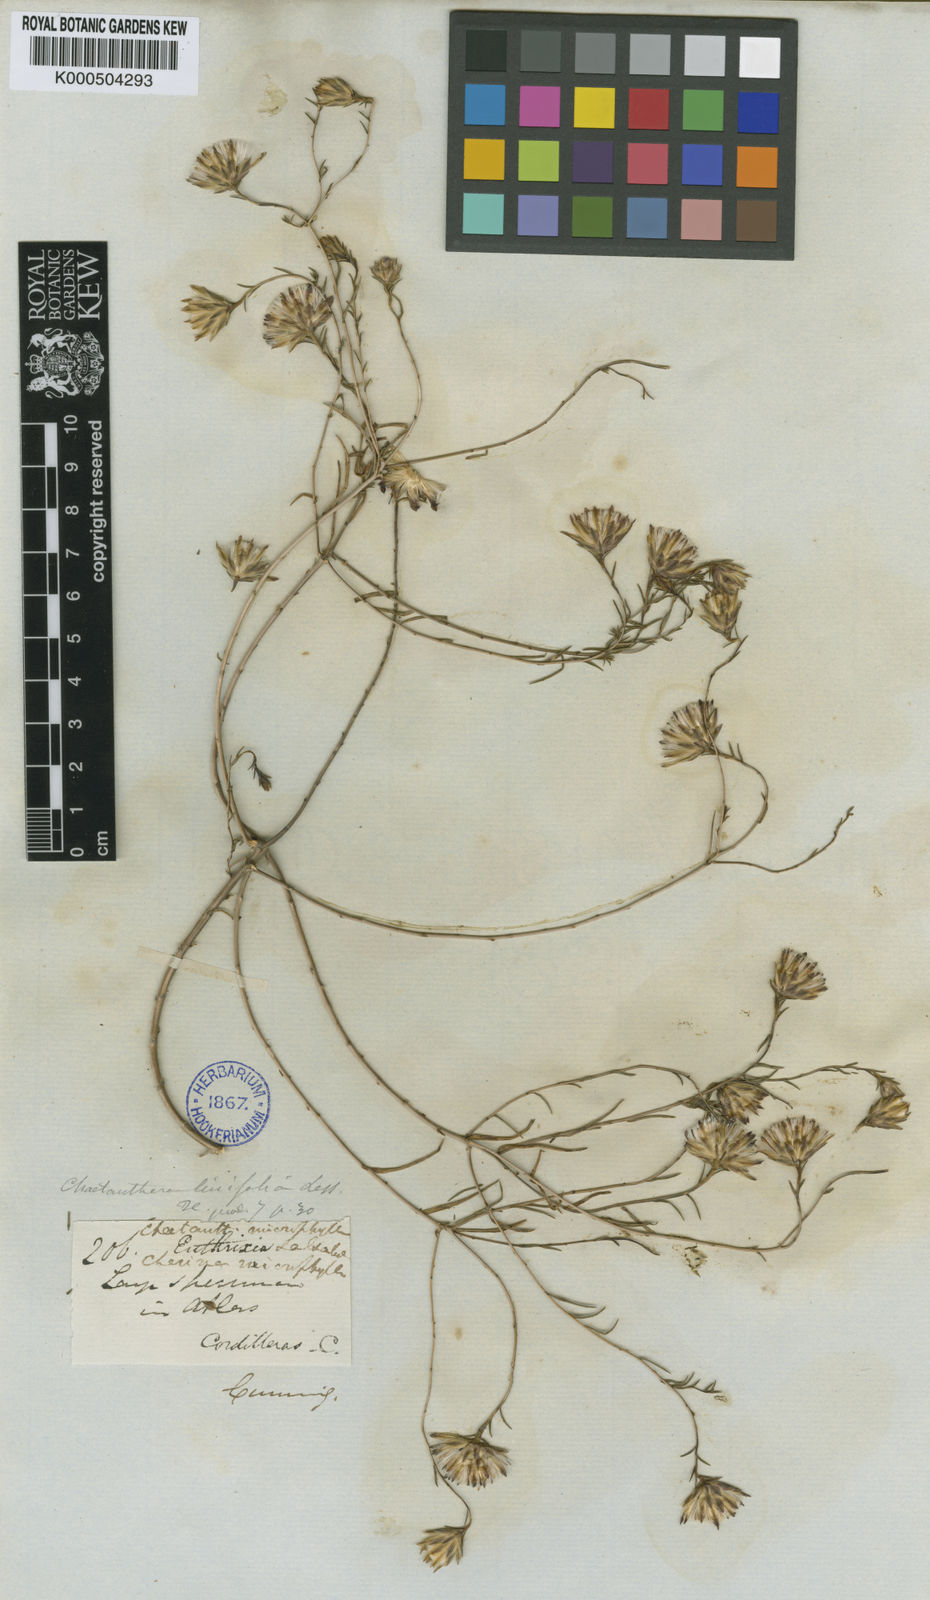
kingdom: Plantae
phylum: Tracheophyta
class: Magnoliopsida
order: Asterales
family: Asteraceae
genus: Chaetanthera
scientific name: Chaetanthera microphylla
